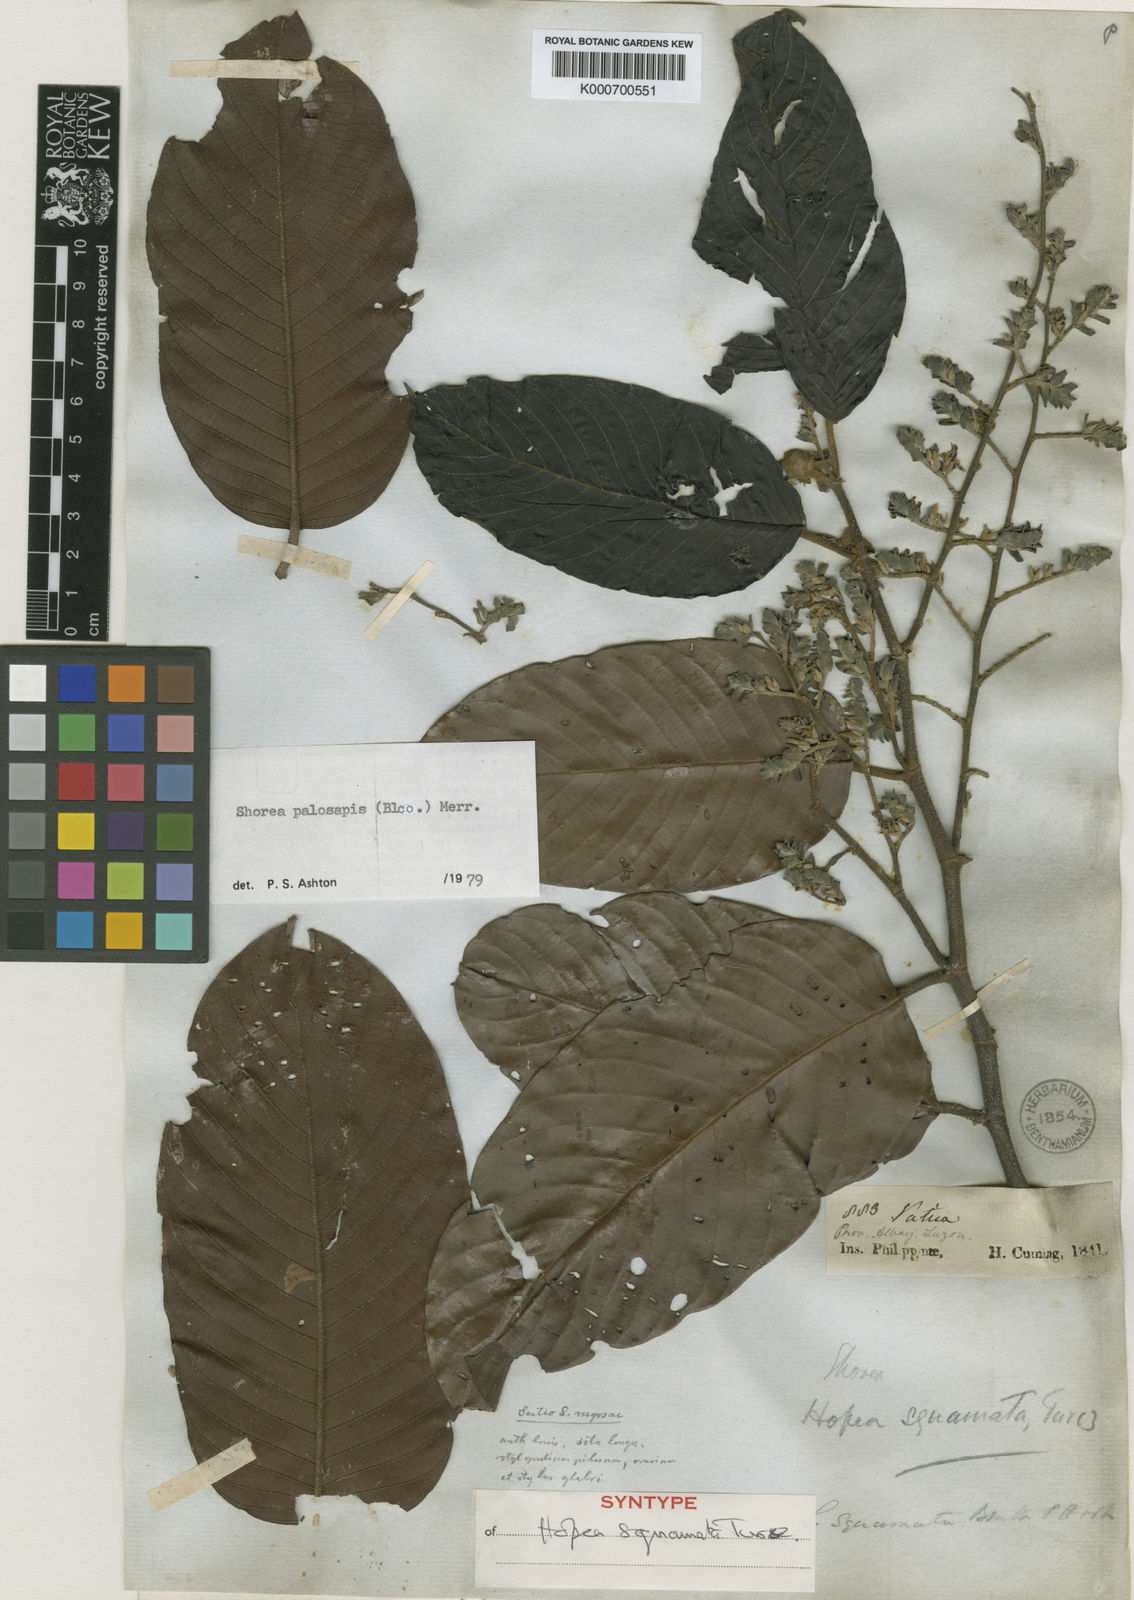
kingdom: Plantae
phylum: Tracheophyta
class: Magnoliopsida
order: Malvales
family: Dipterocarpaceae
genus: Shorea
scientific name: Shorea palosapis
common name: Philippine mahogany
